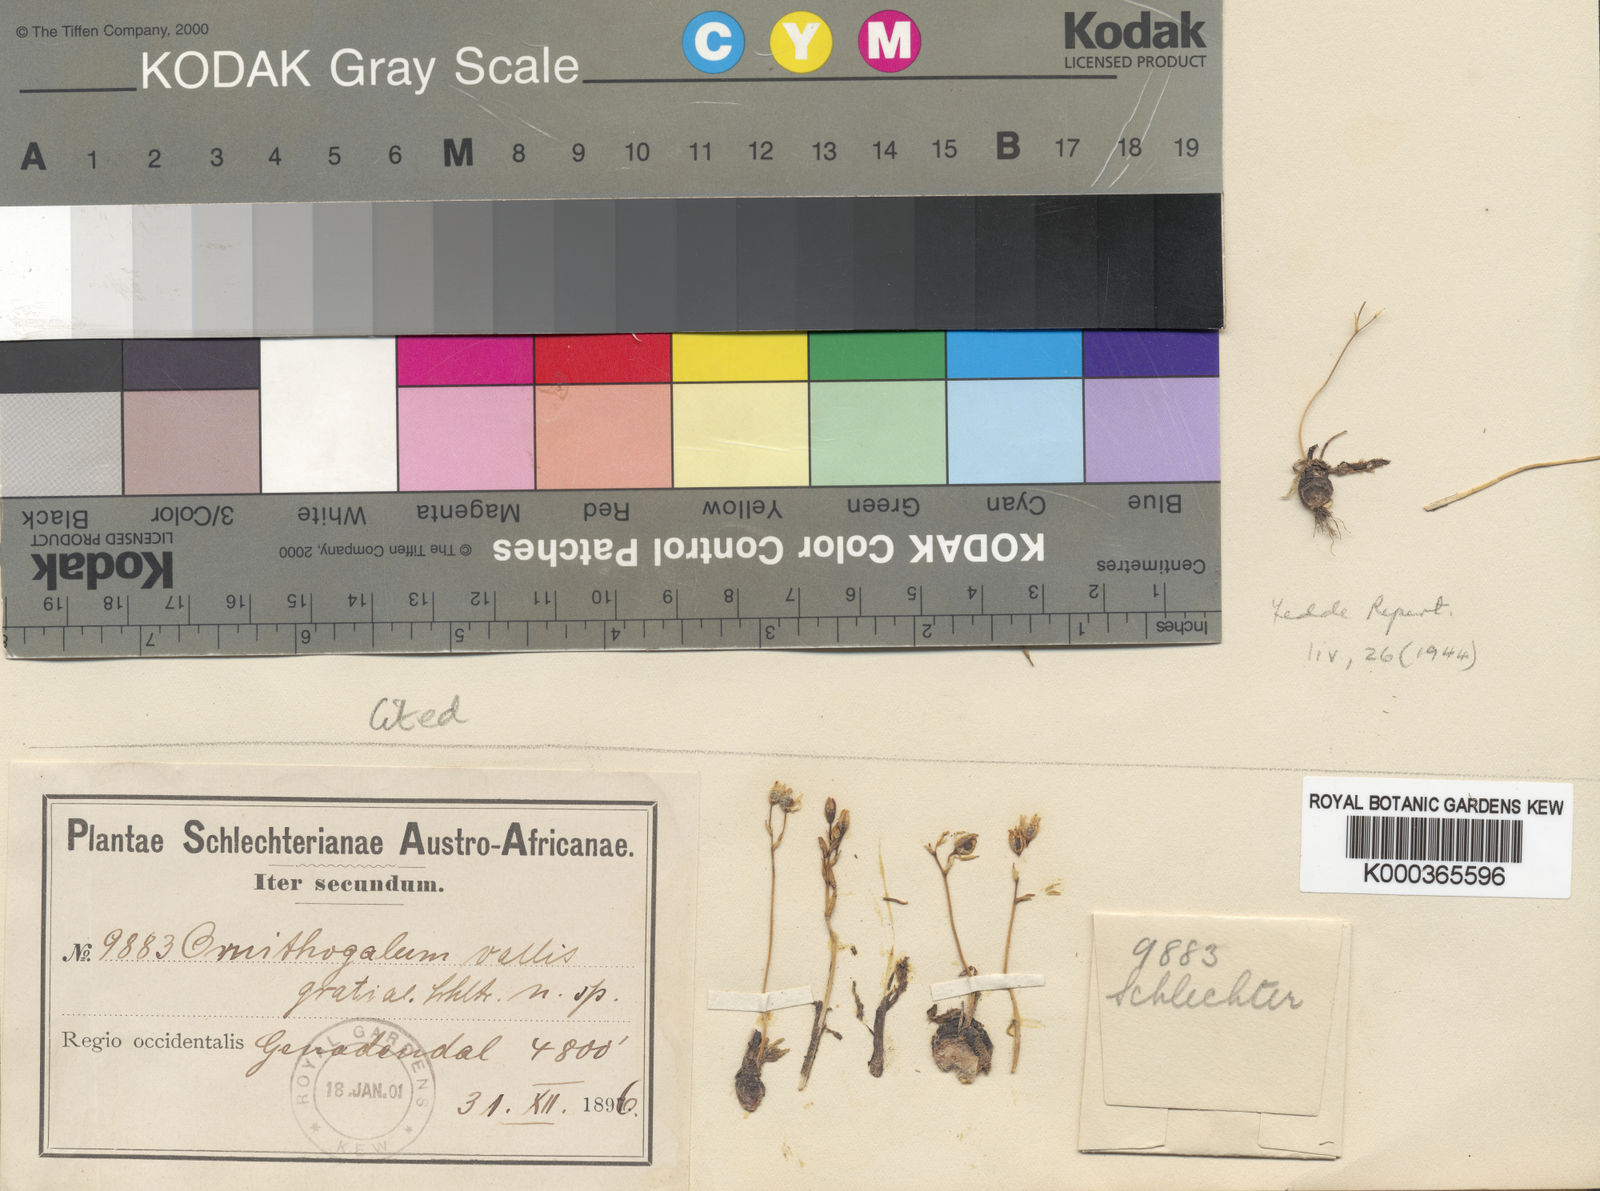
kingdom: Plantae
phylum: Tracheophyta
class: Liliopsida
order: Asparagales
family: Asparagaceae
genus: Ornithogalum
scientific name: Ornithogalum
